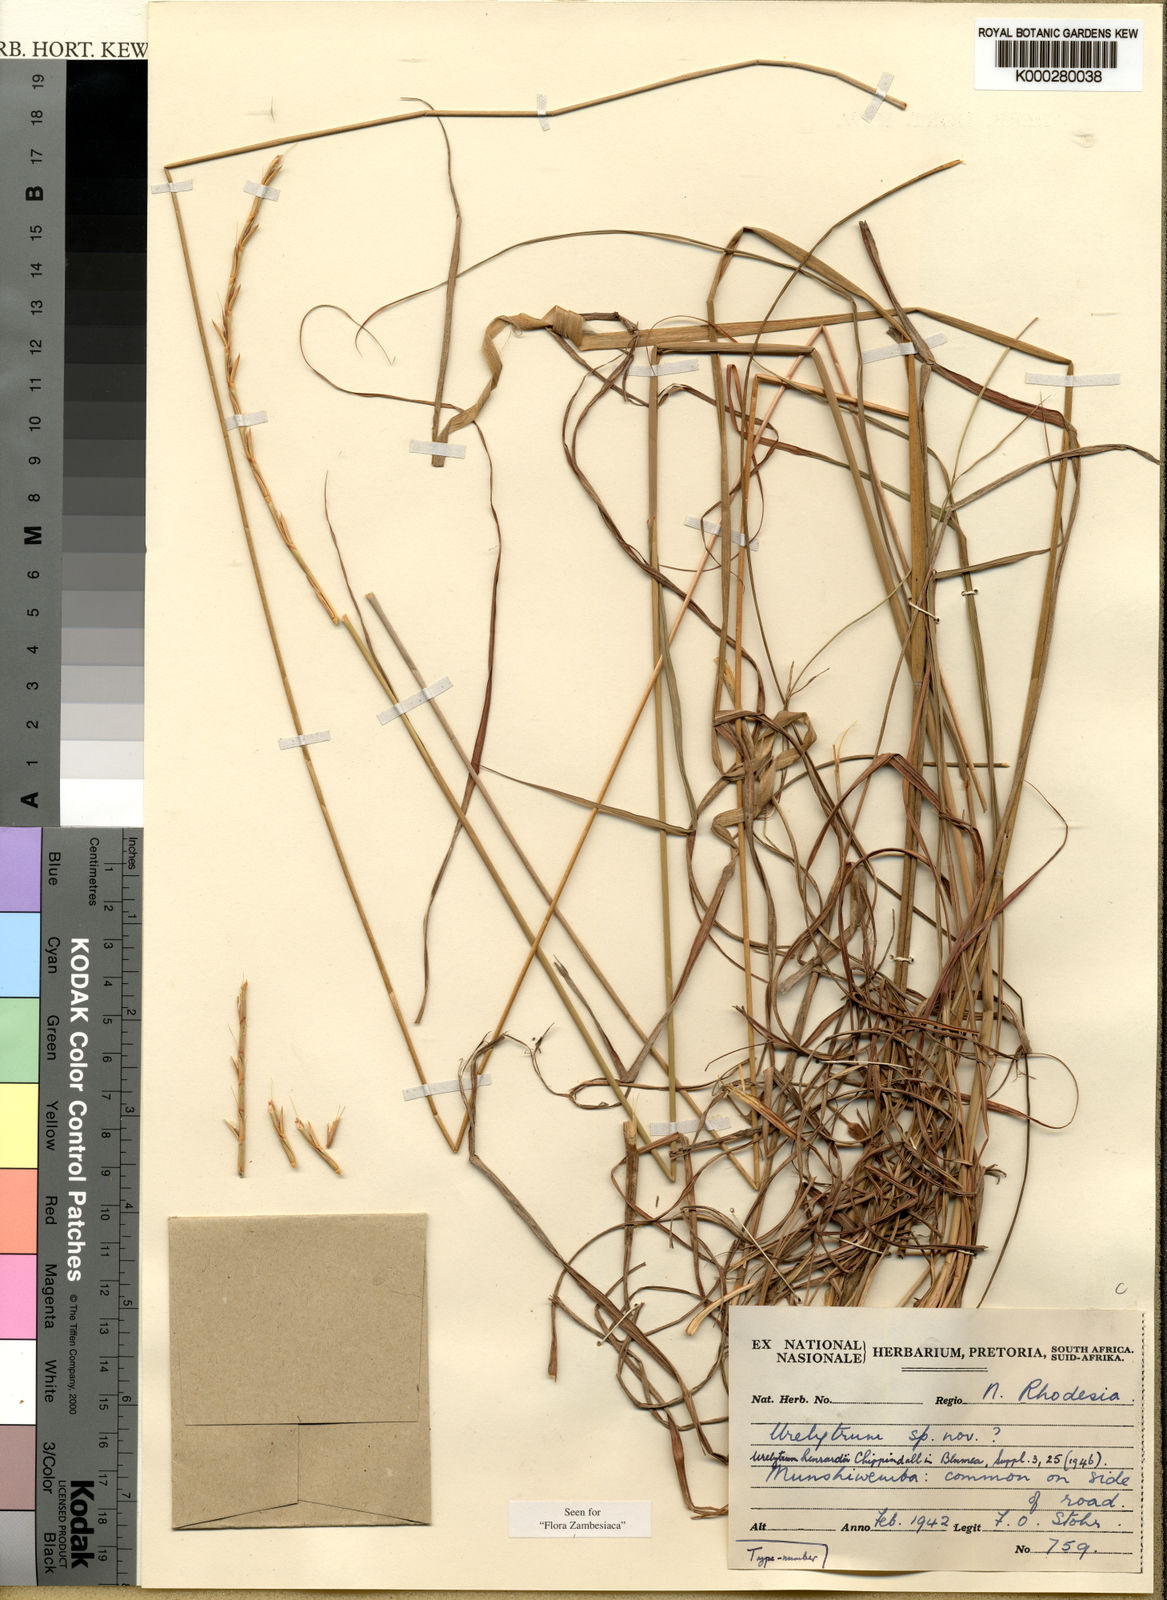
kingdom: Plantae
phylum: Tracheophyta
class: Liliopsida
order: Poales
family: Poaceae
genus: Urelytrum
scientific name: Urelytrum henrardii
